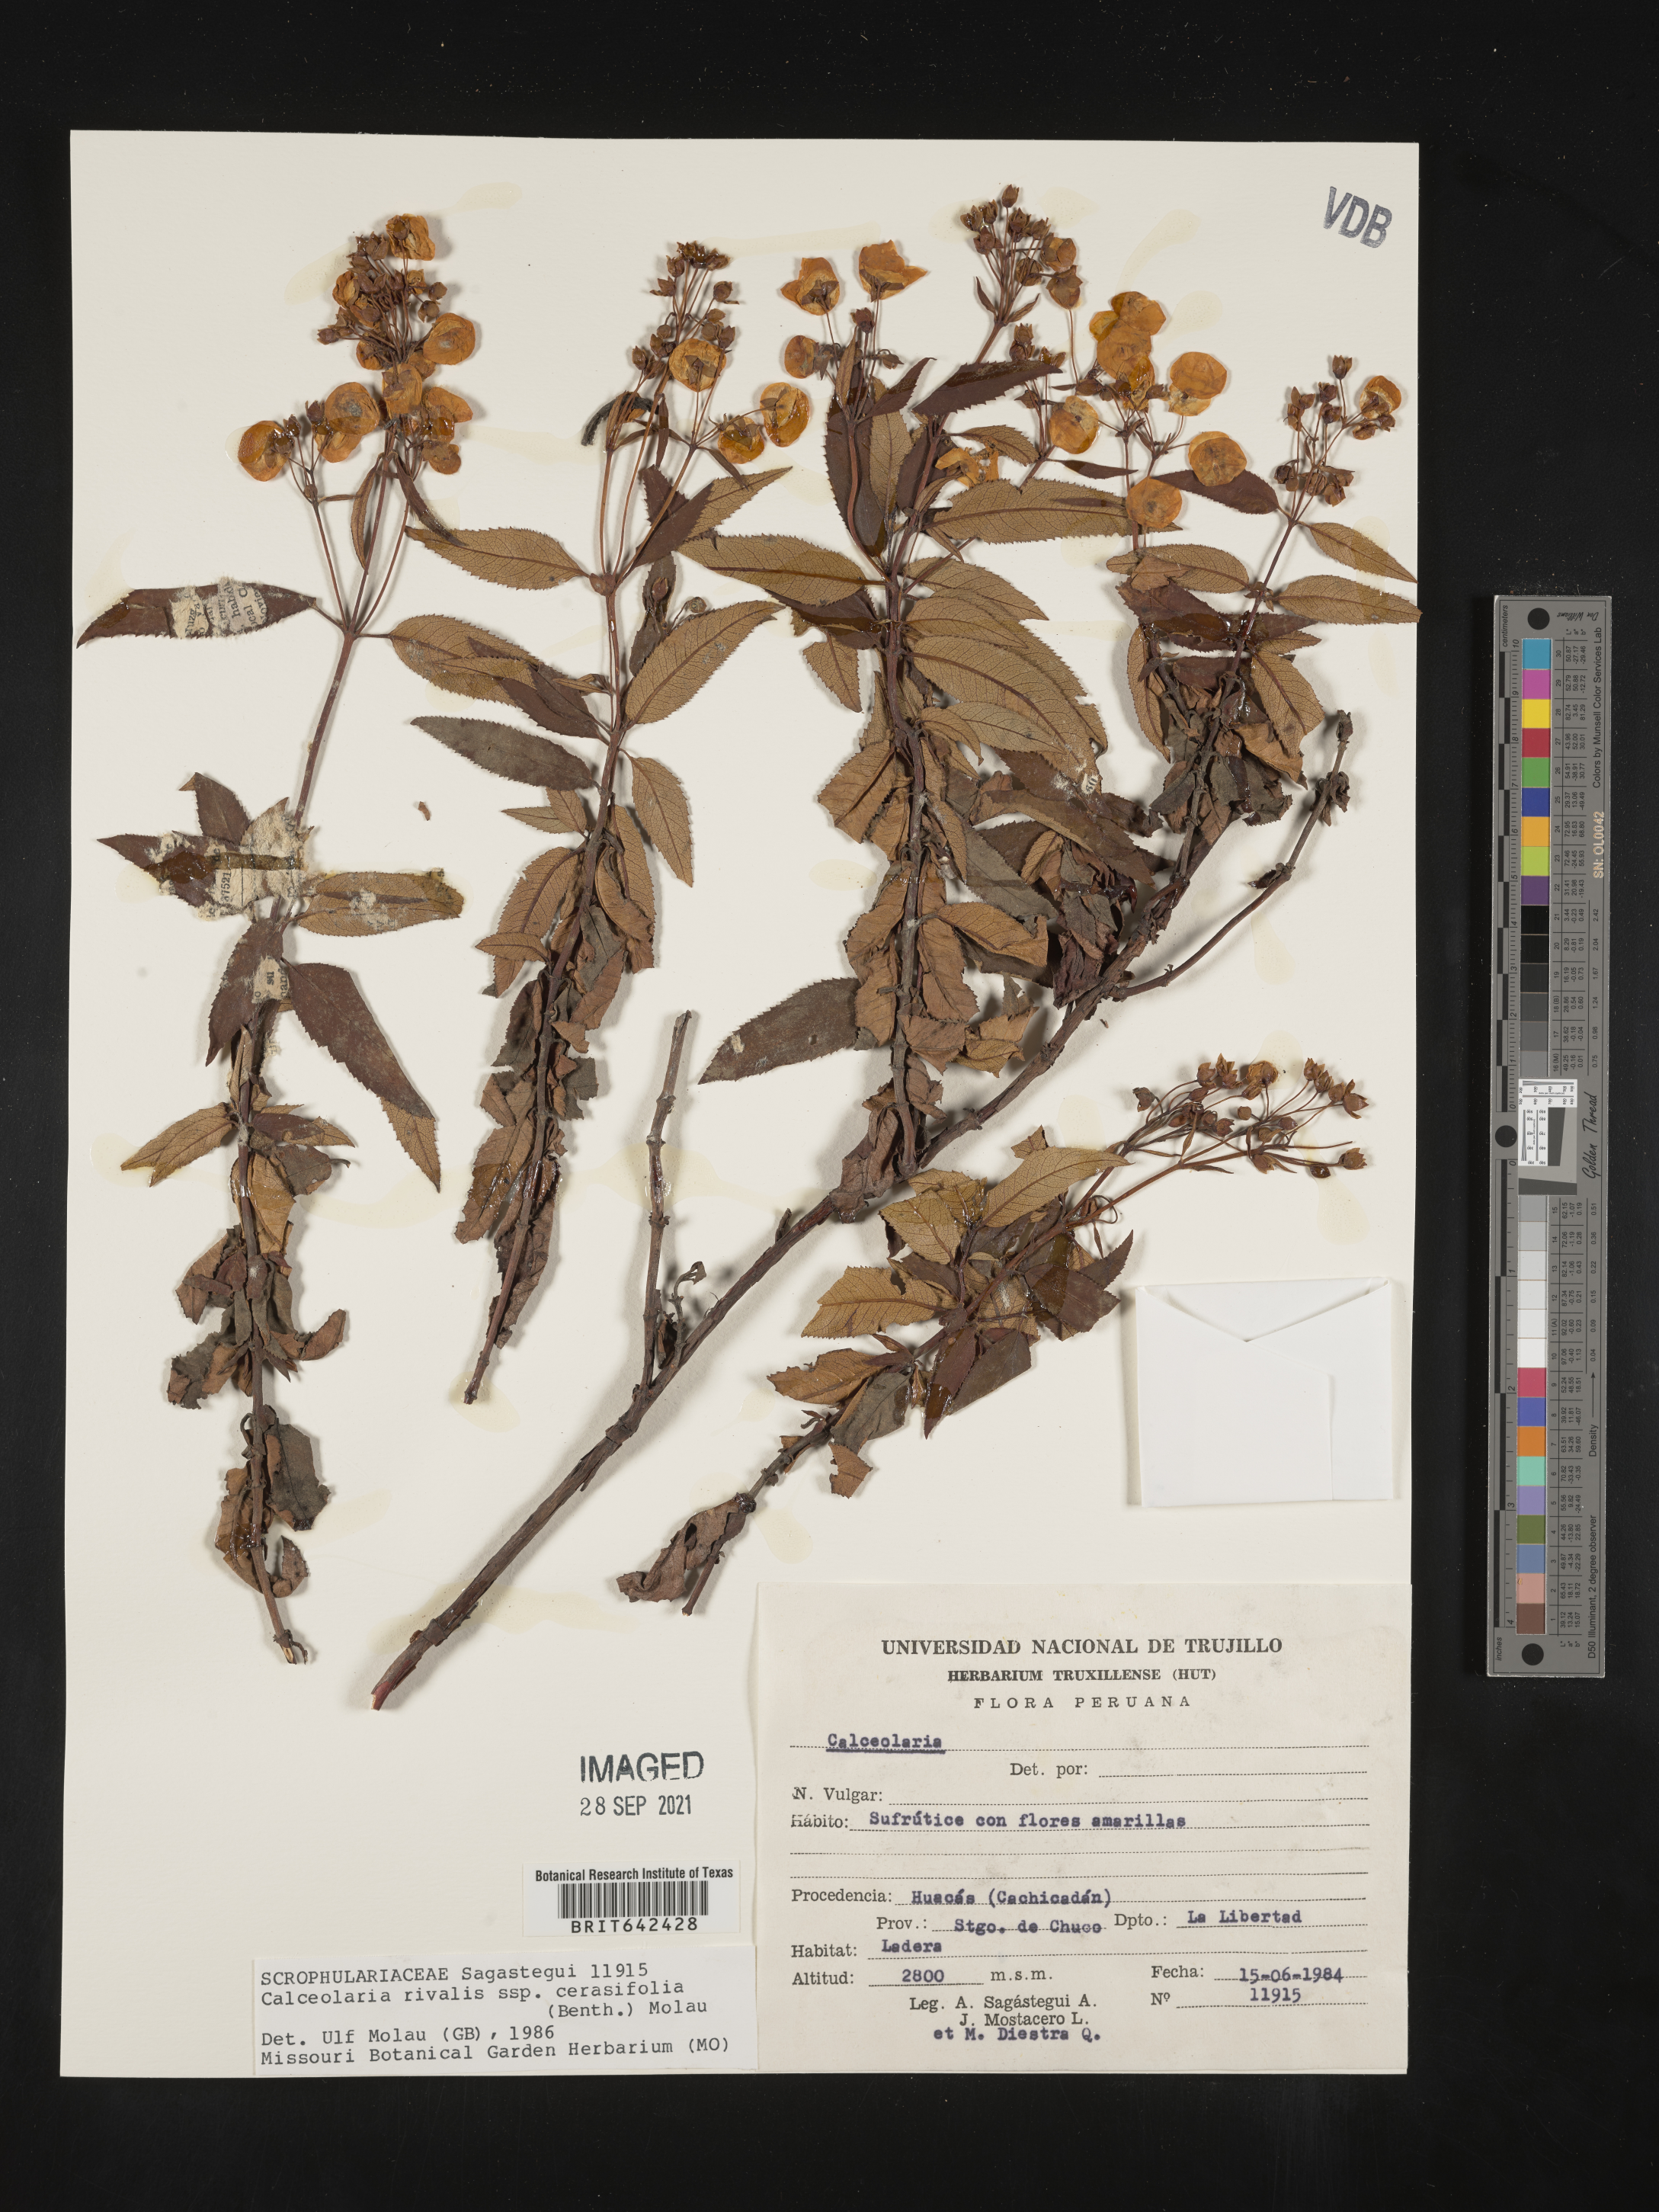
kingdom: Plantae
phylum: Tracheophyta
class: Magnoliopsida
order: Lamiales
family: Calceolariaceae
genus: Calceolaria
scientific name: Calceolaria rivularis
